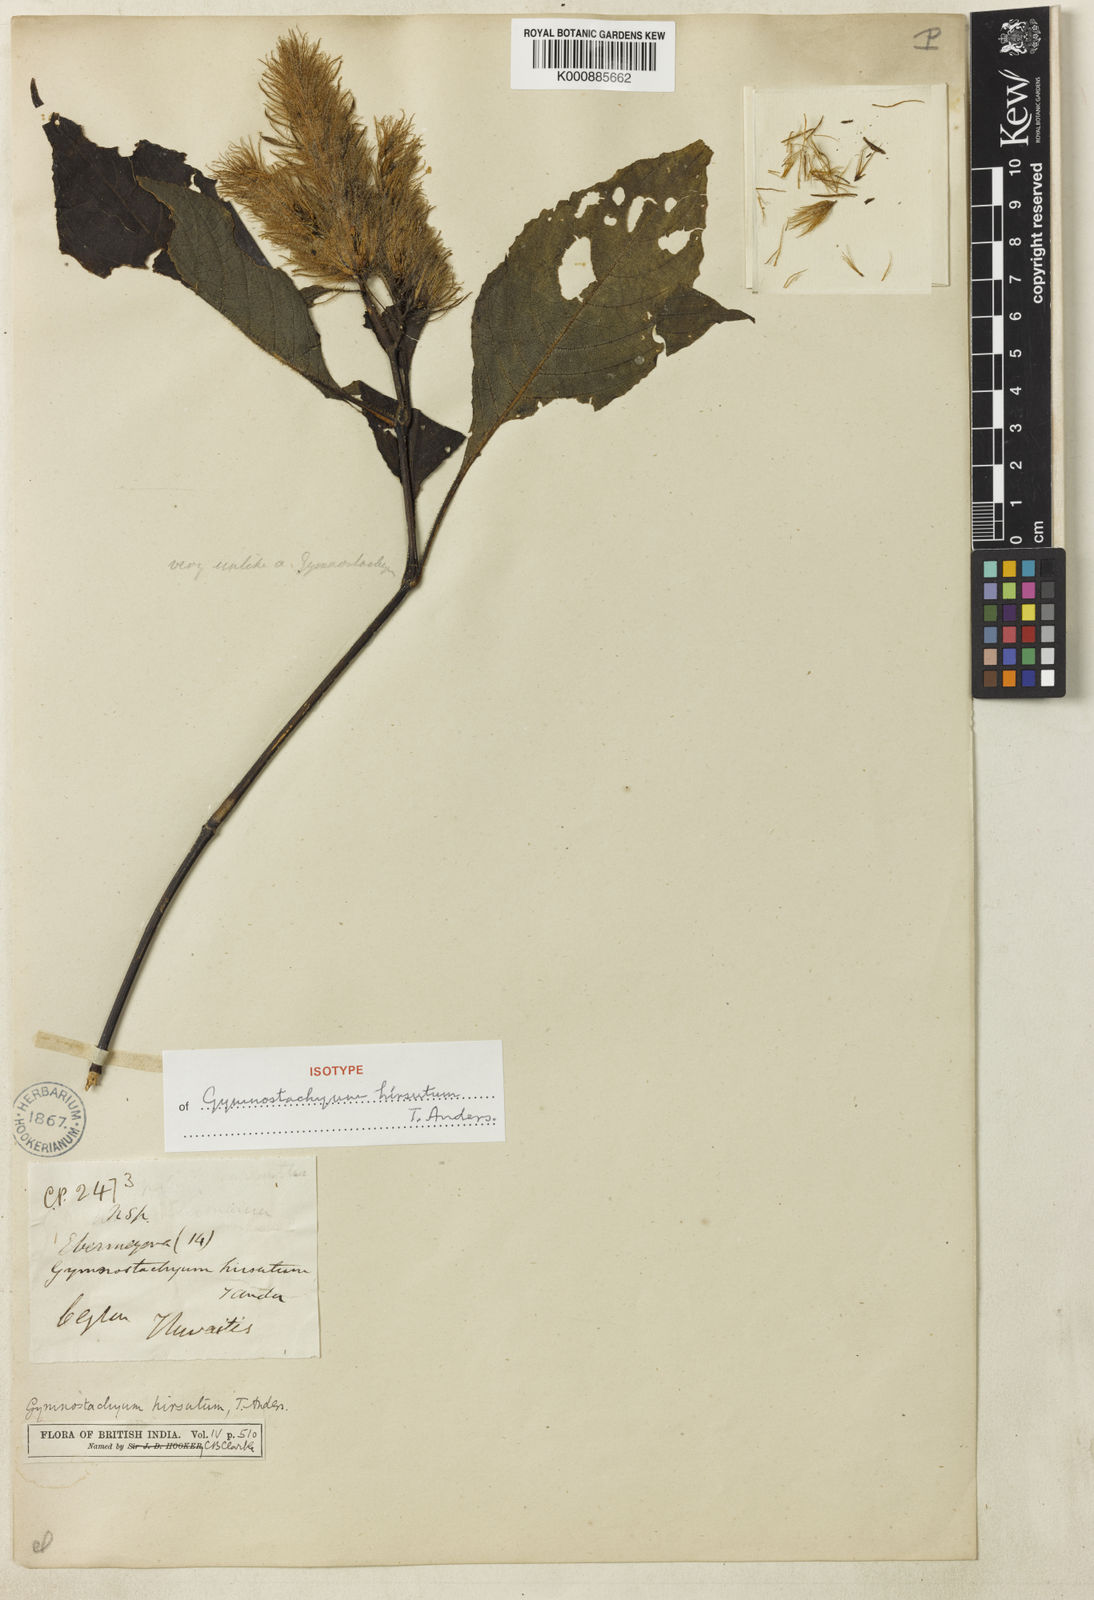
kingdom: Plantae
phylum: Tracheophyta
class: Magnoliopsida
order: Lamiales
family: Acanthaceae
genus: Gymnostachyum
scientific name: Gymnostachyum hirsutum
